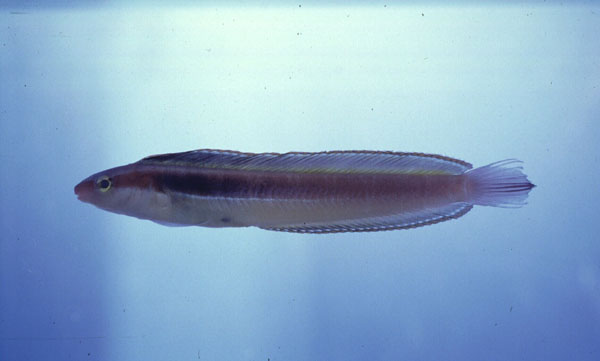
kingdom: Animalia
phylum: Chordata
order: Perciformes
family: Blenniidae
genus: Aspidontus
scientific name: Aspidontus dussumieri
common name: Lance blenny
